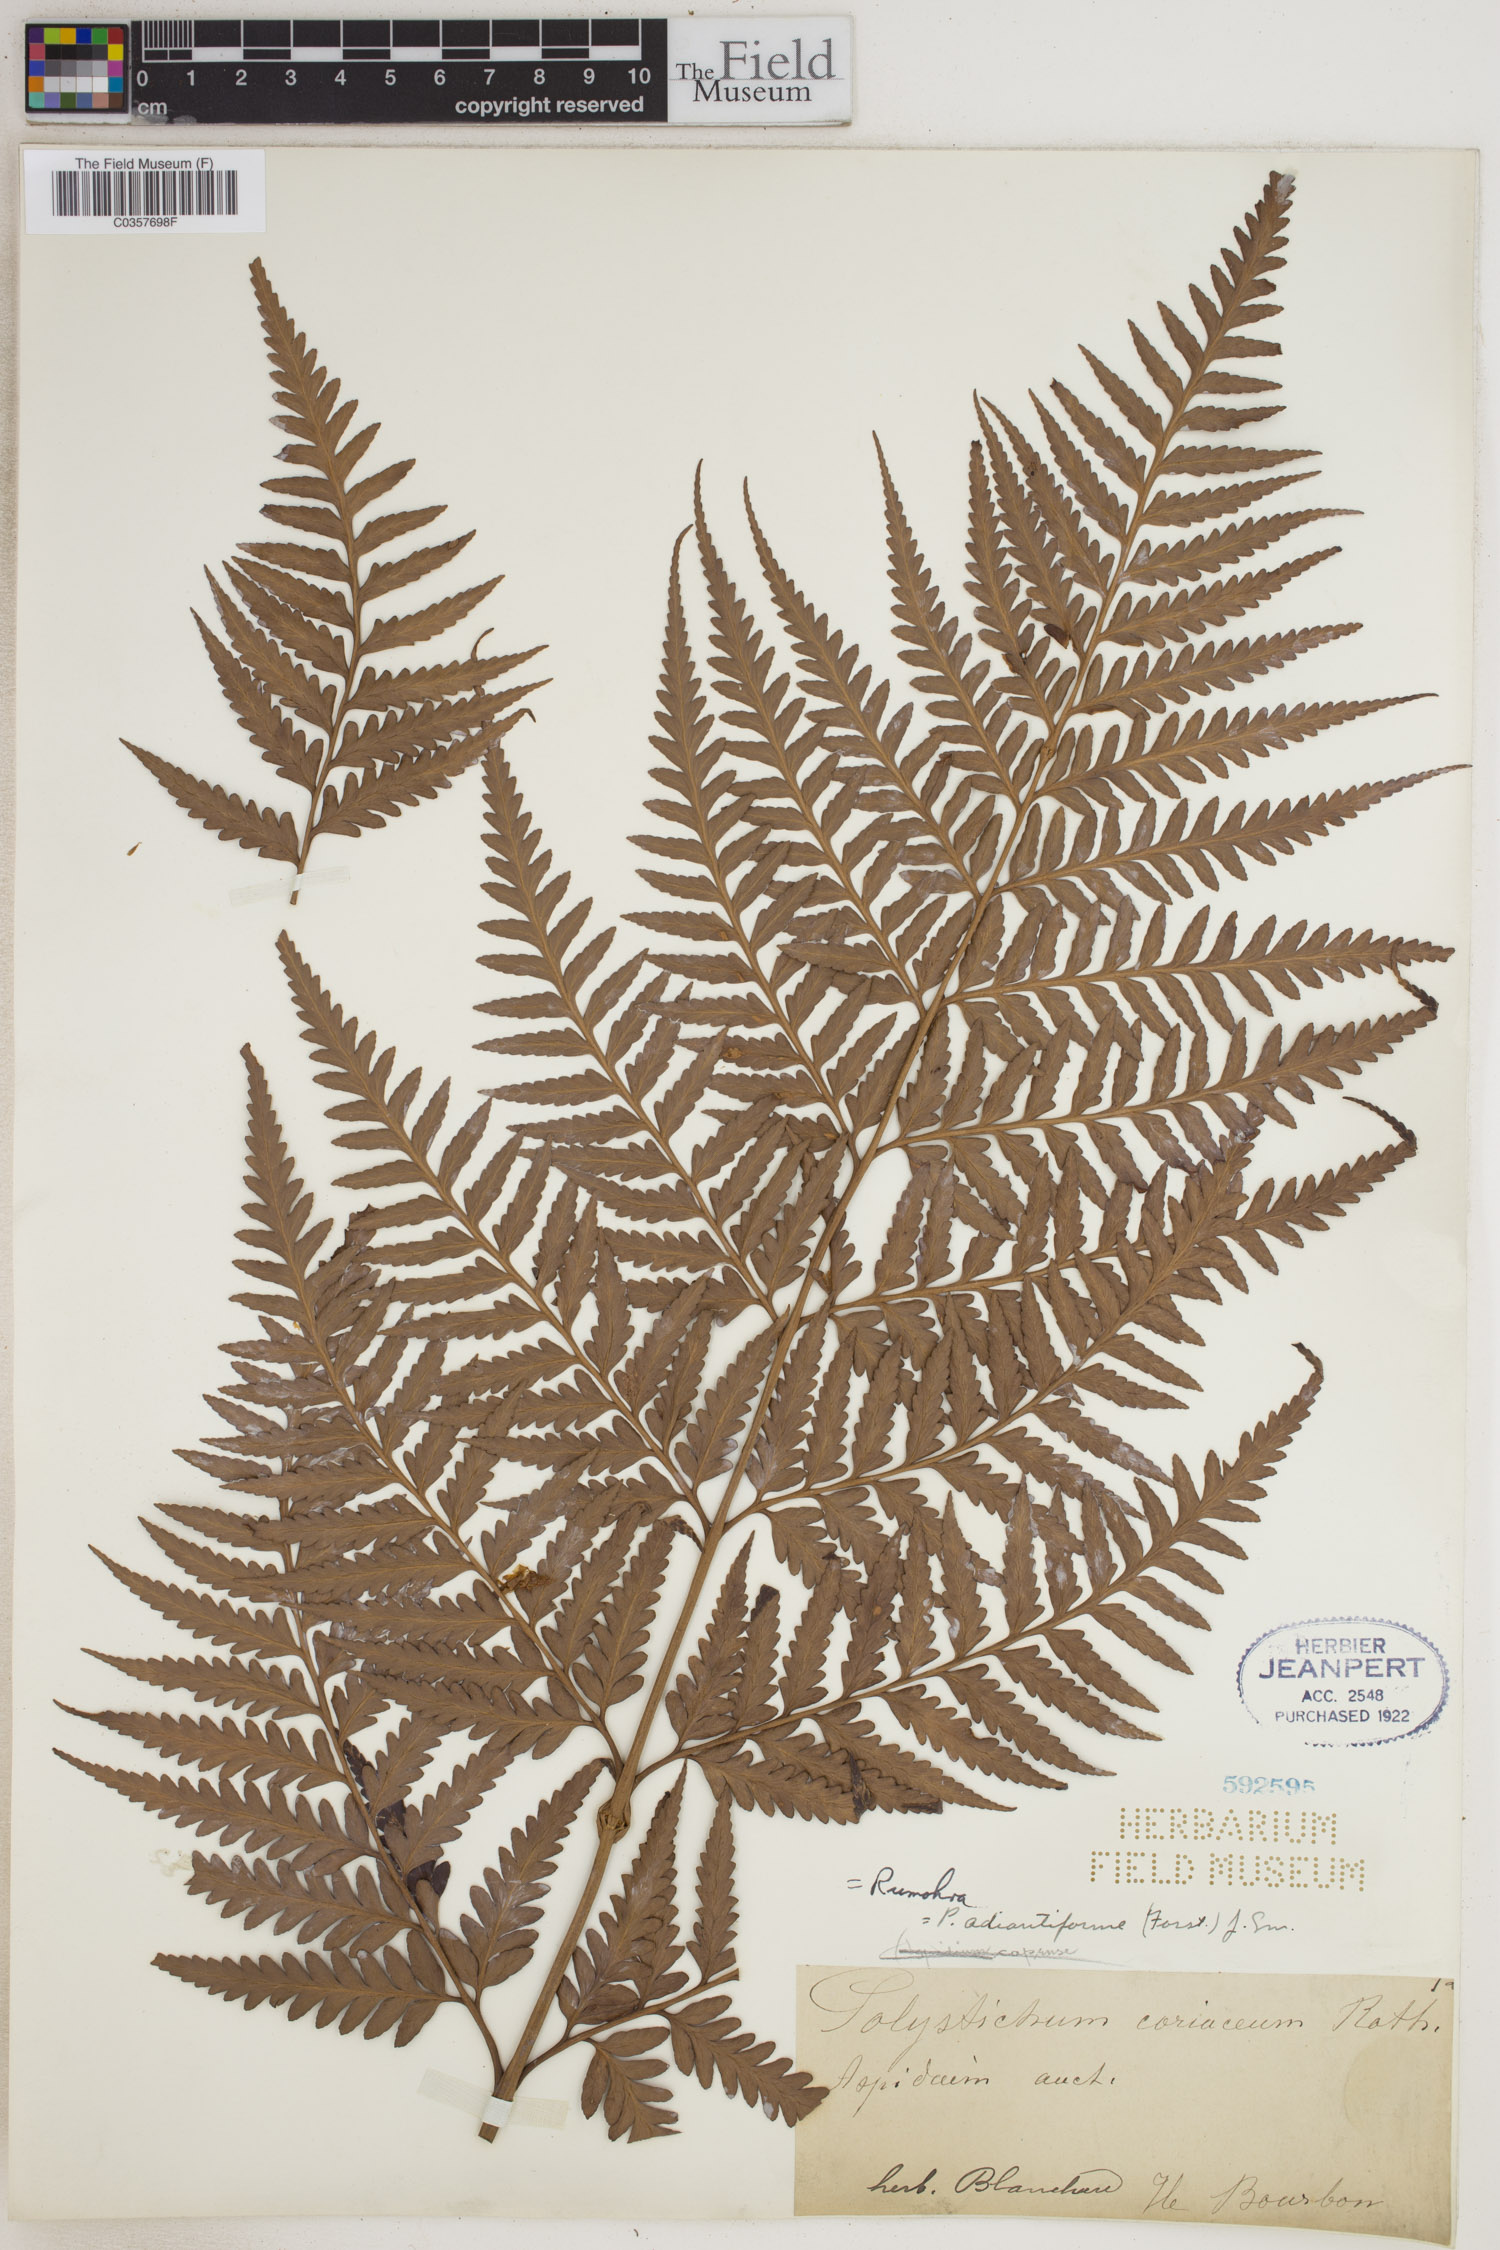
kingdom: Plantae
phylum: Tracheophyta
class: Polypodiopsida
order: Polypodiales
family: Dryopteridaceae
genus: Rumohra
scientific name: Rumohra adiantiformis
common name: Leather fern
